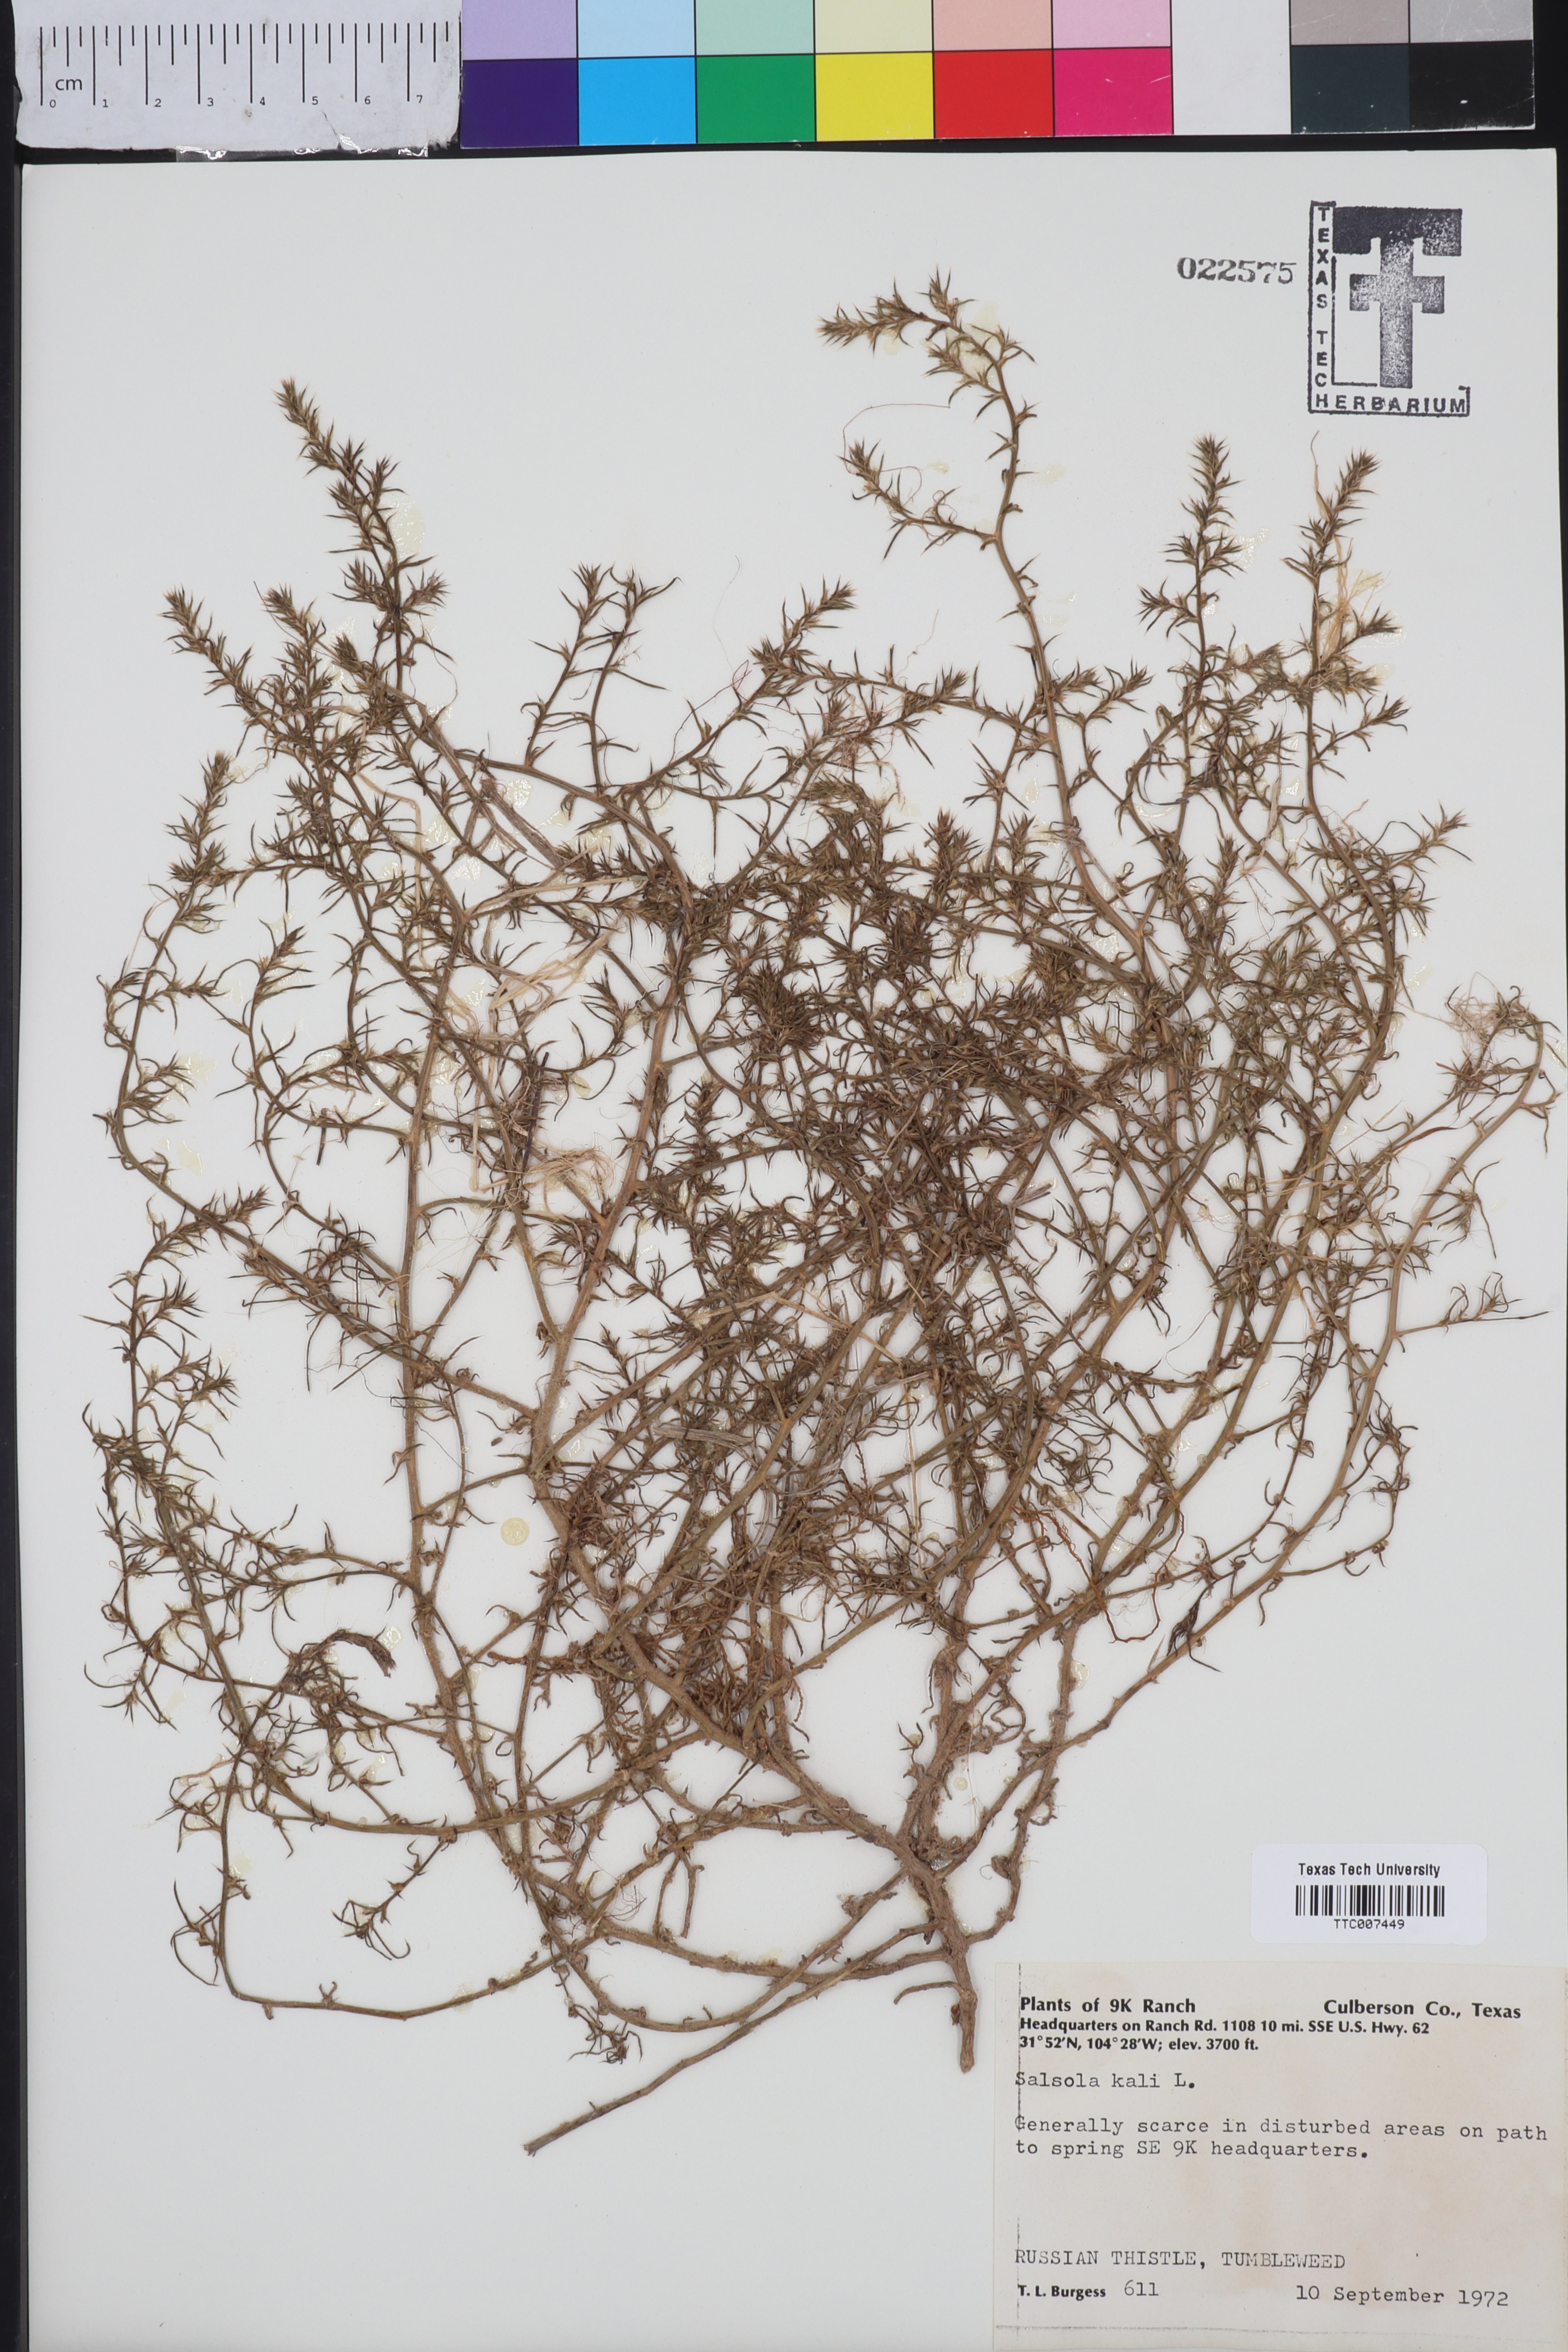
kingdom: Plantae
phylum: Tracheophyta
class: Magnoliopsida
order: Caryophyllales
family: Amaranthaceae
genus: Salsola
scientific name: Salsola kali
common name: Saltwort
